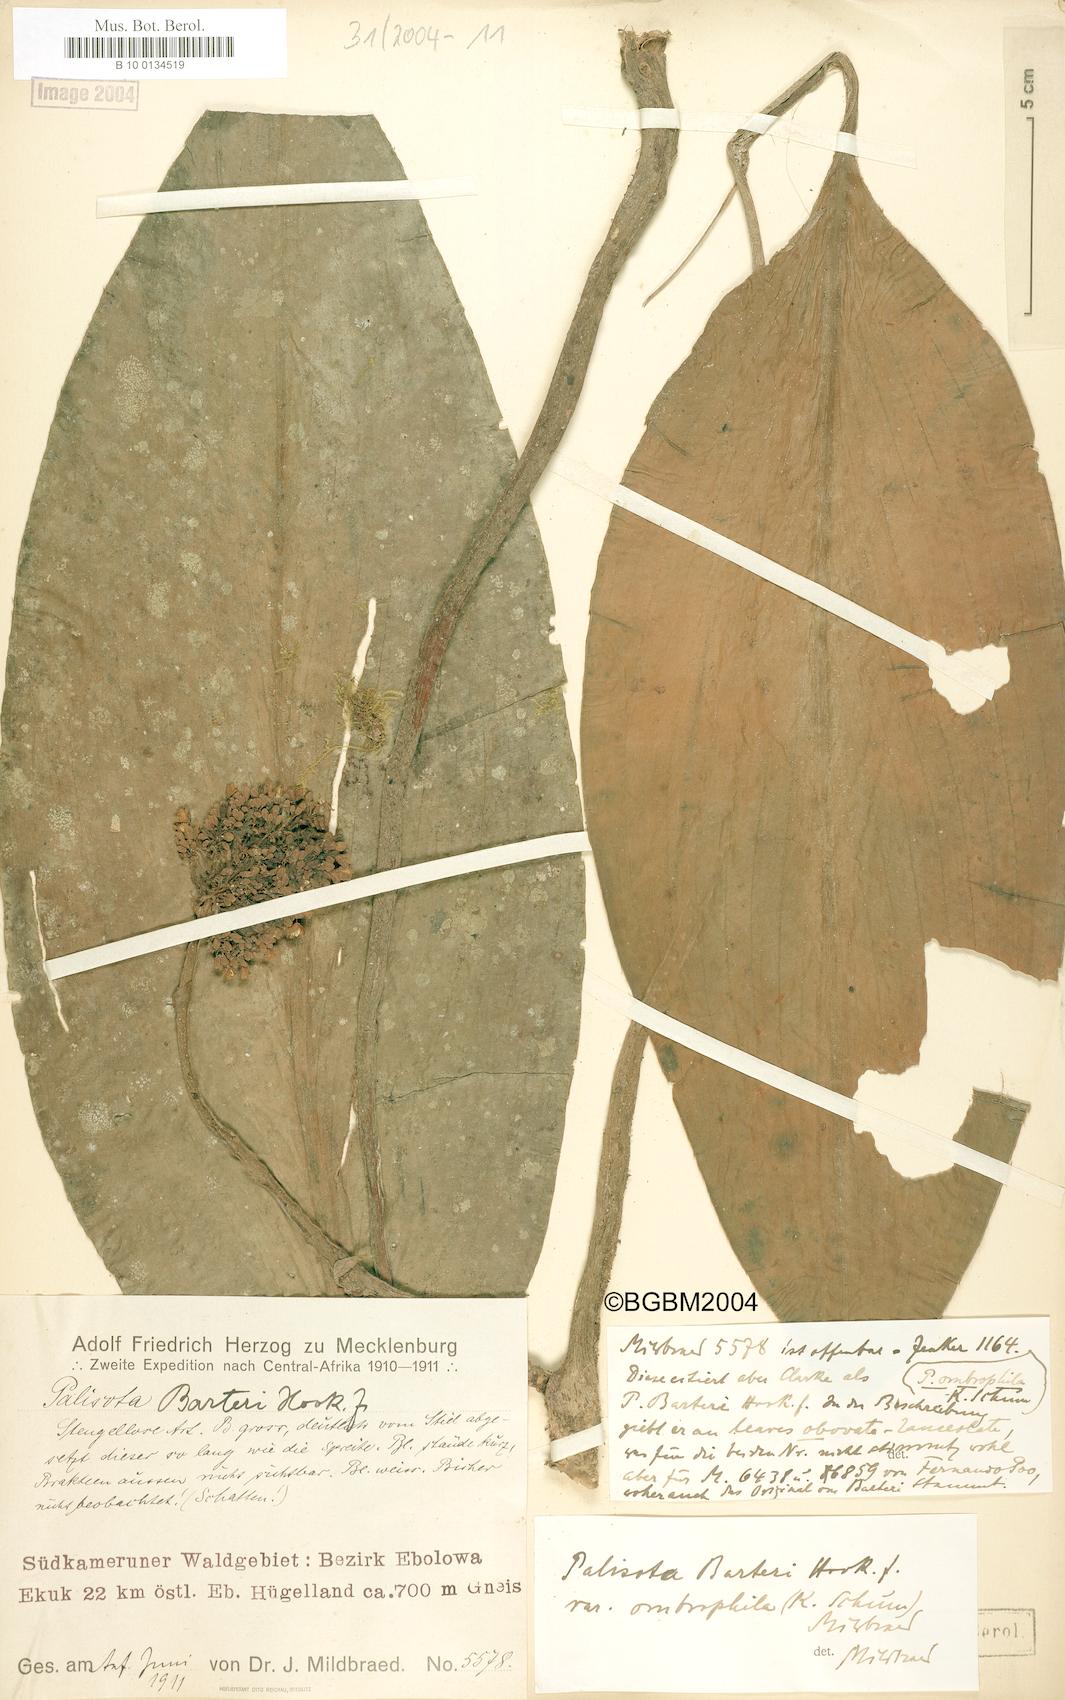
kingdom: Plantae
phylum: Tracheophyta
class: Liliopsida
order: Commelinales
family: Commelinaceae
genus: Palisota
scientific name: Palisota barteri
